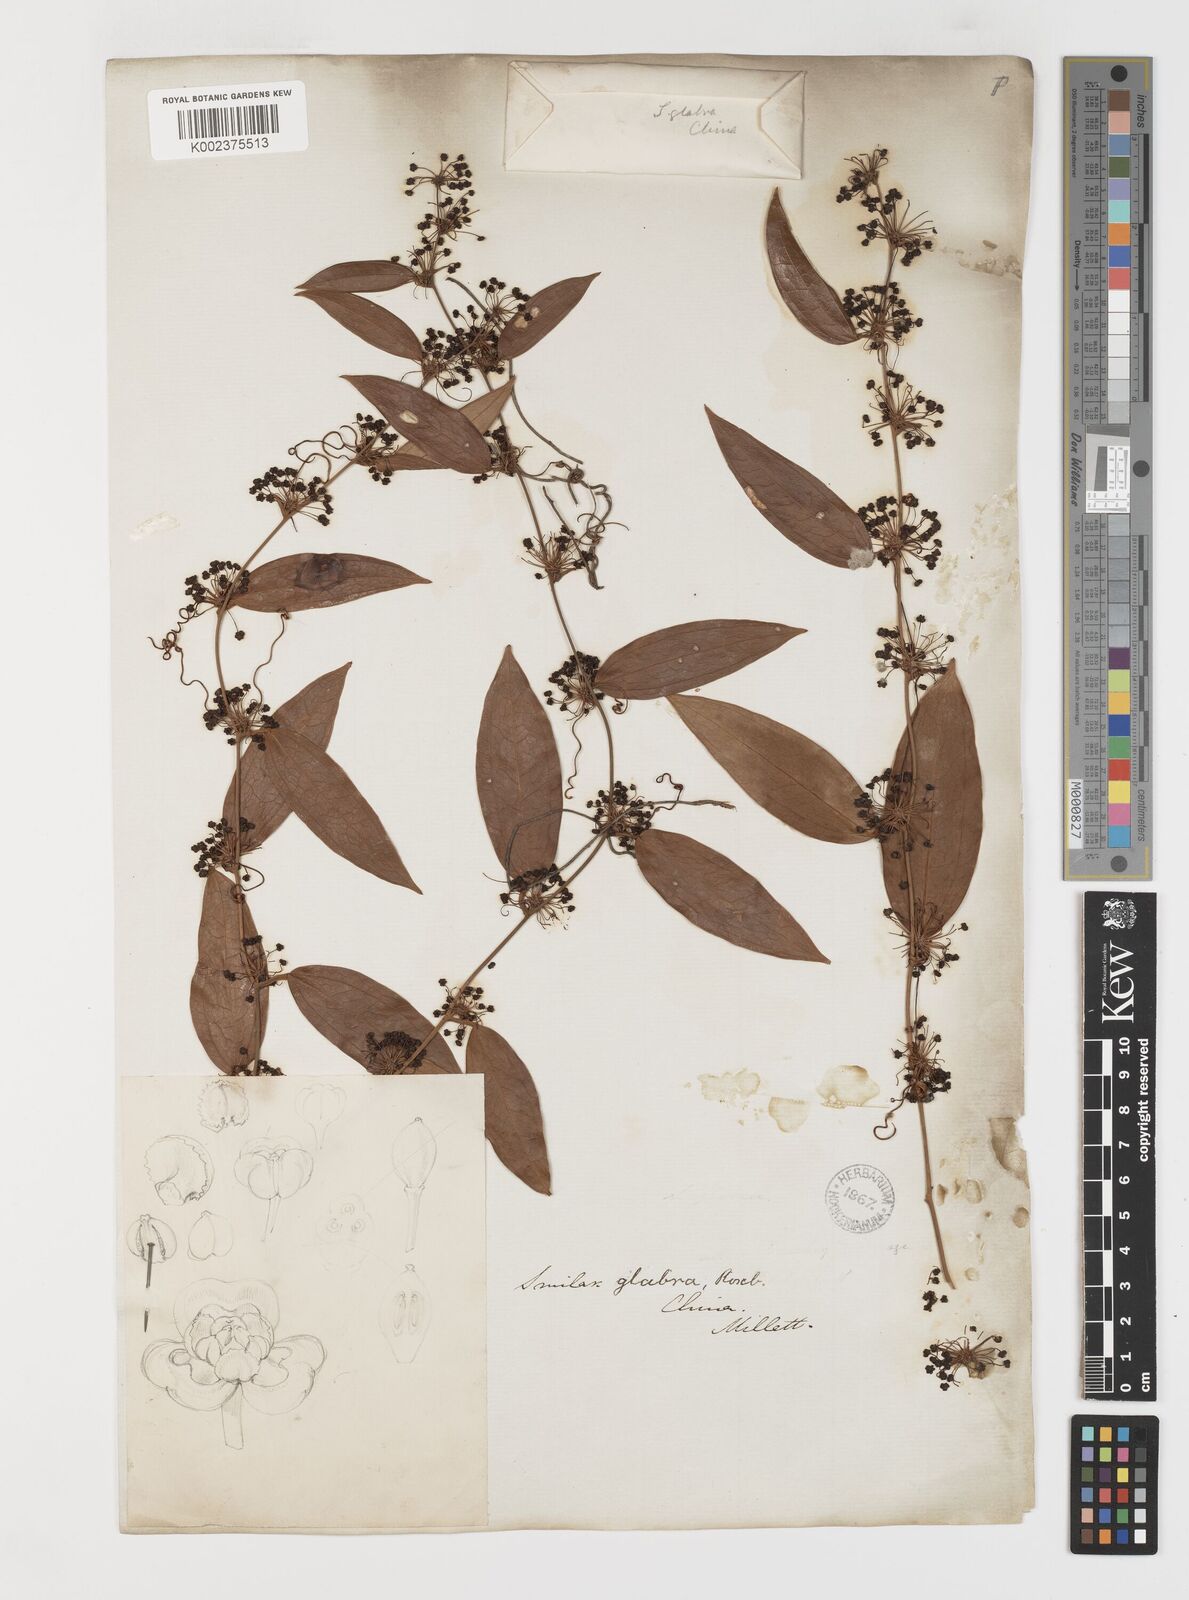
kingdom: Plantae
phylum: Tracheophyta
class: Liliopsida
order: Liliales
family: Smilacaceae
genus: Smilax
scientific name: Smilax glabra
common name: Chinese smilax
